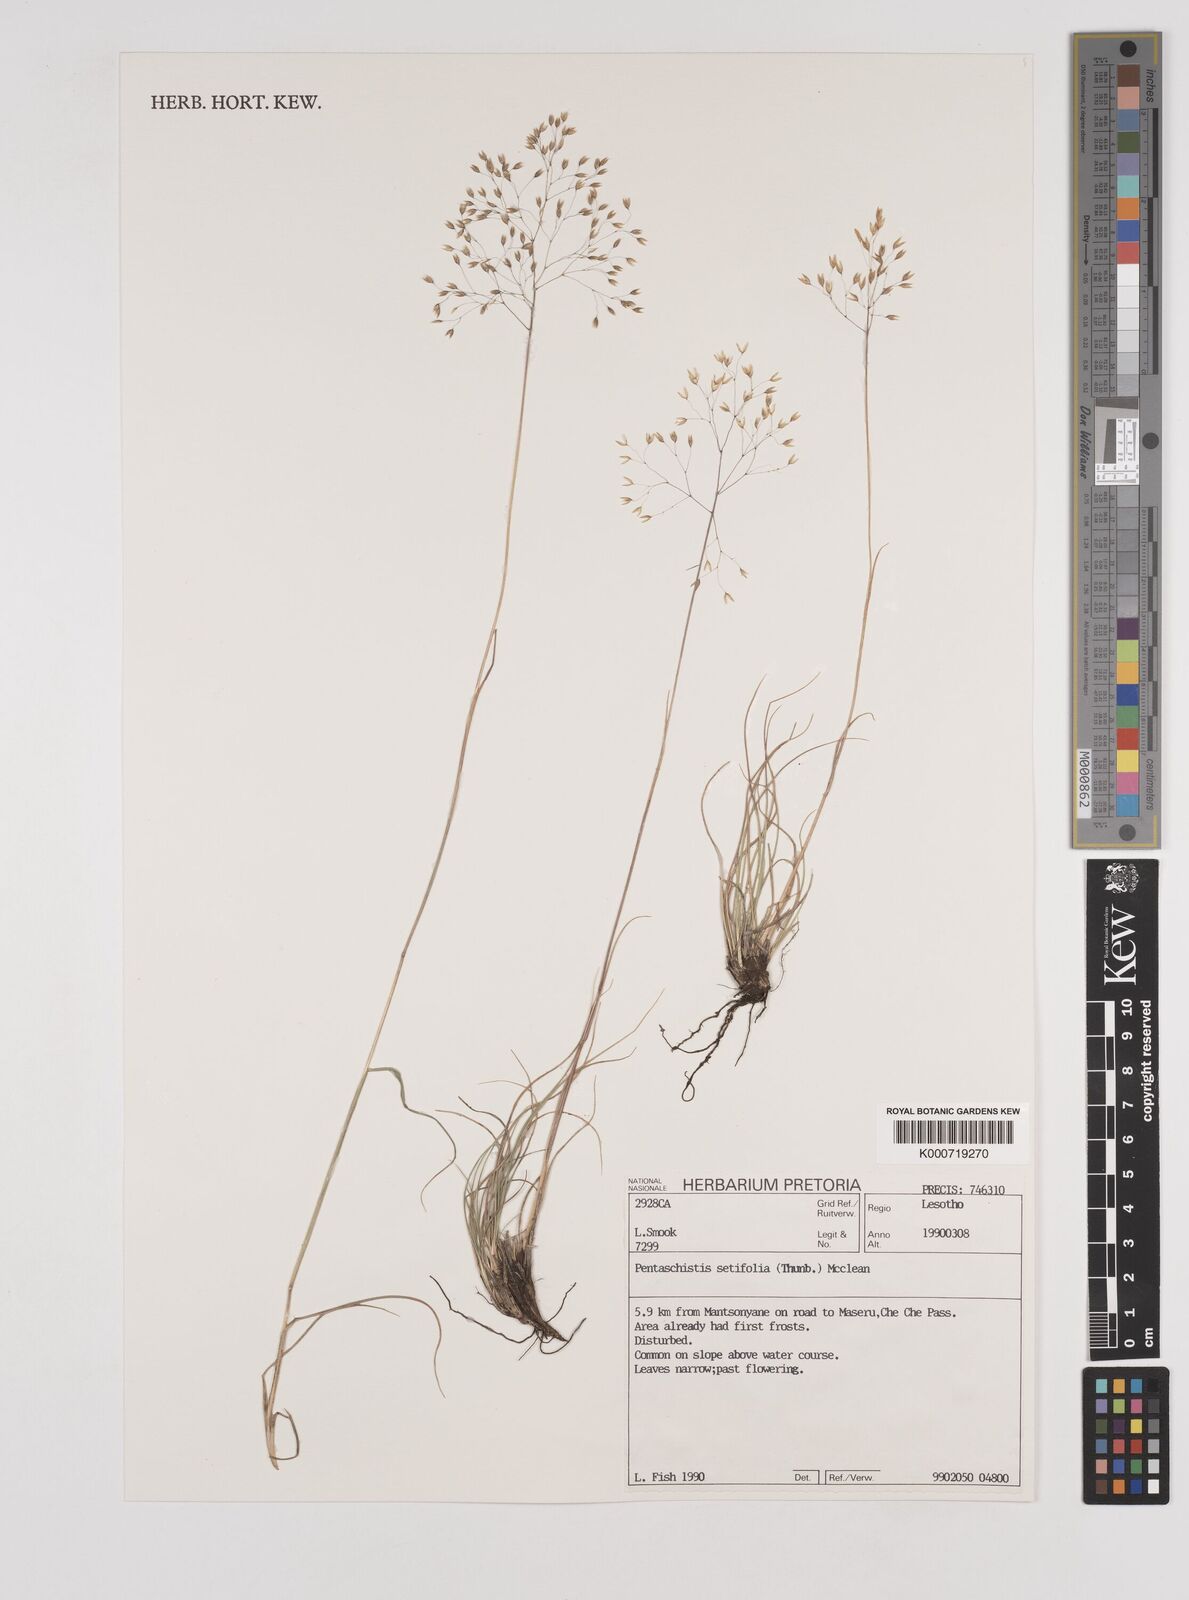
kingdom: Plantae
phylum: Tracheophyta
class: Liliopsida
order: Poales
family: Poaceae
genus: Pentameris
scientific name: Pentameris setifolia
